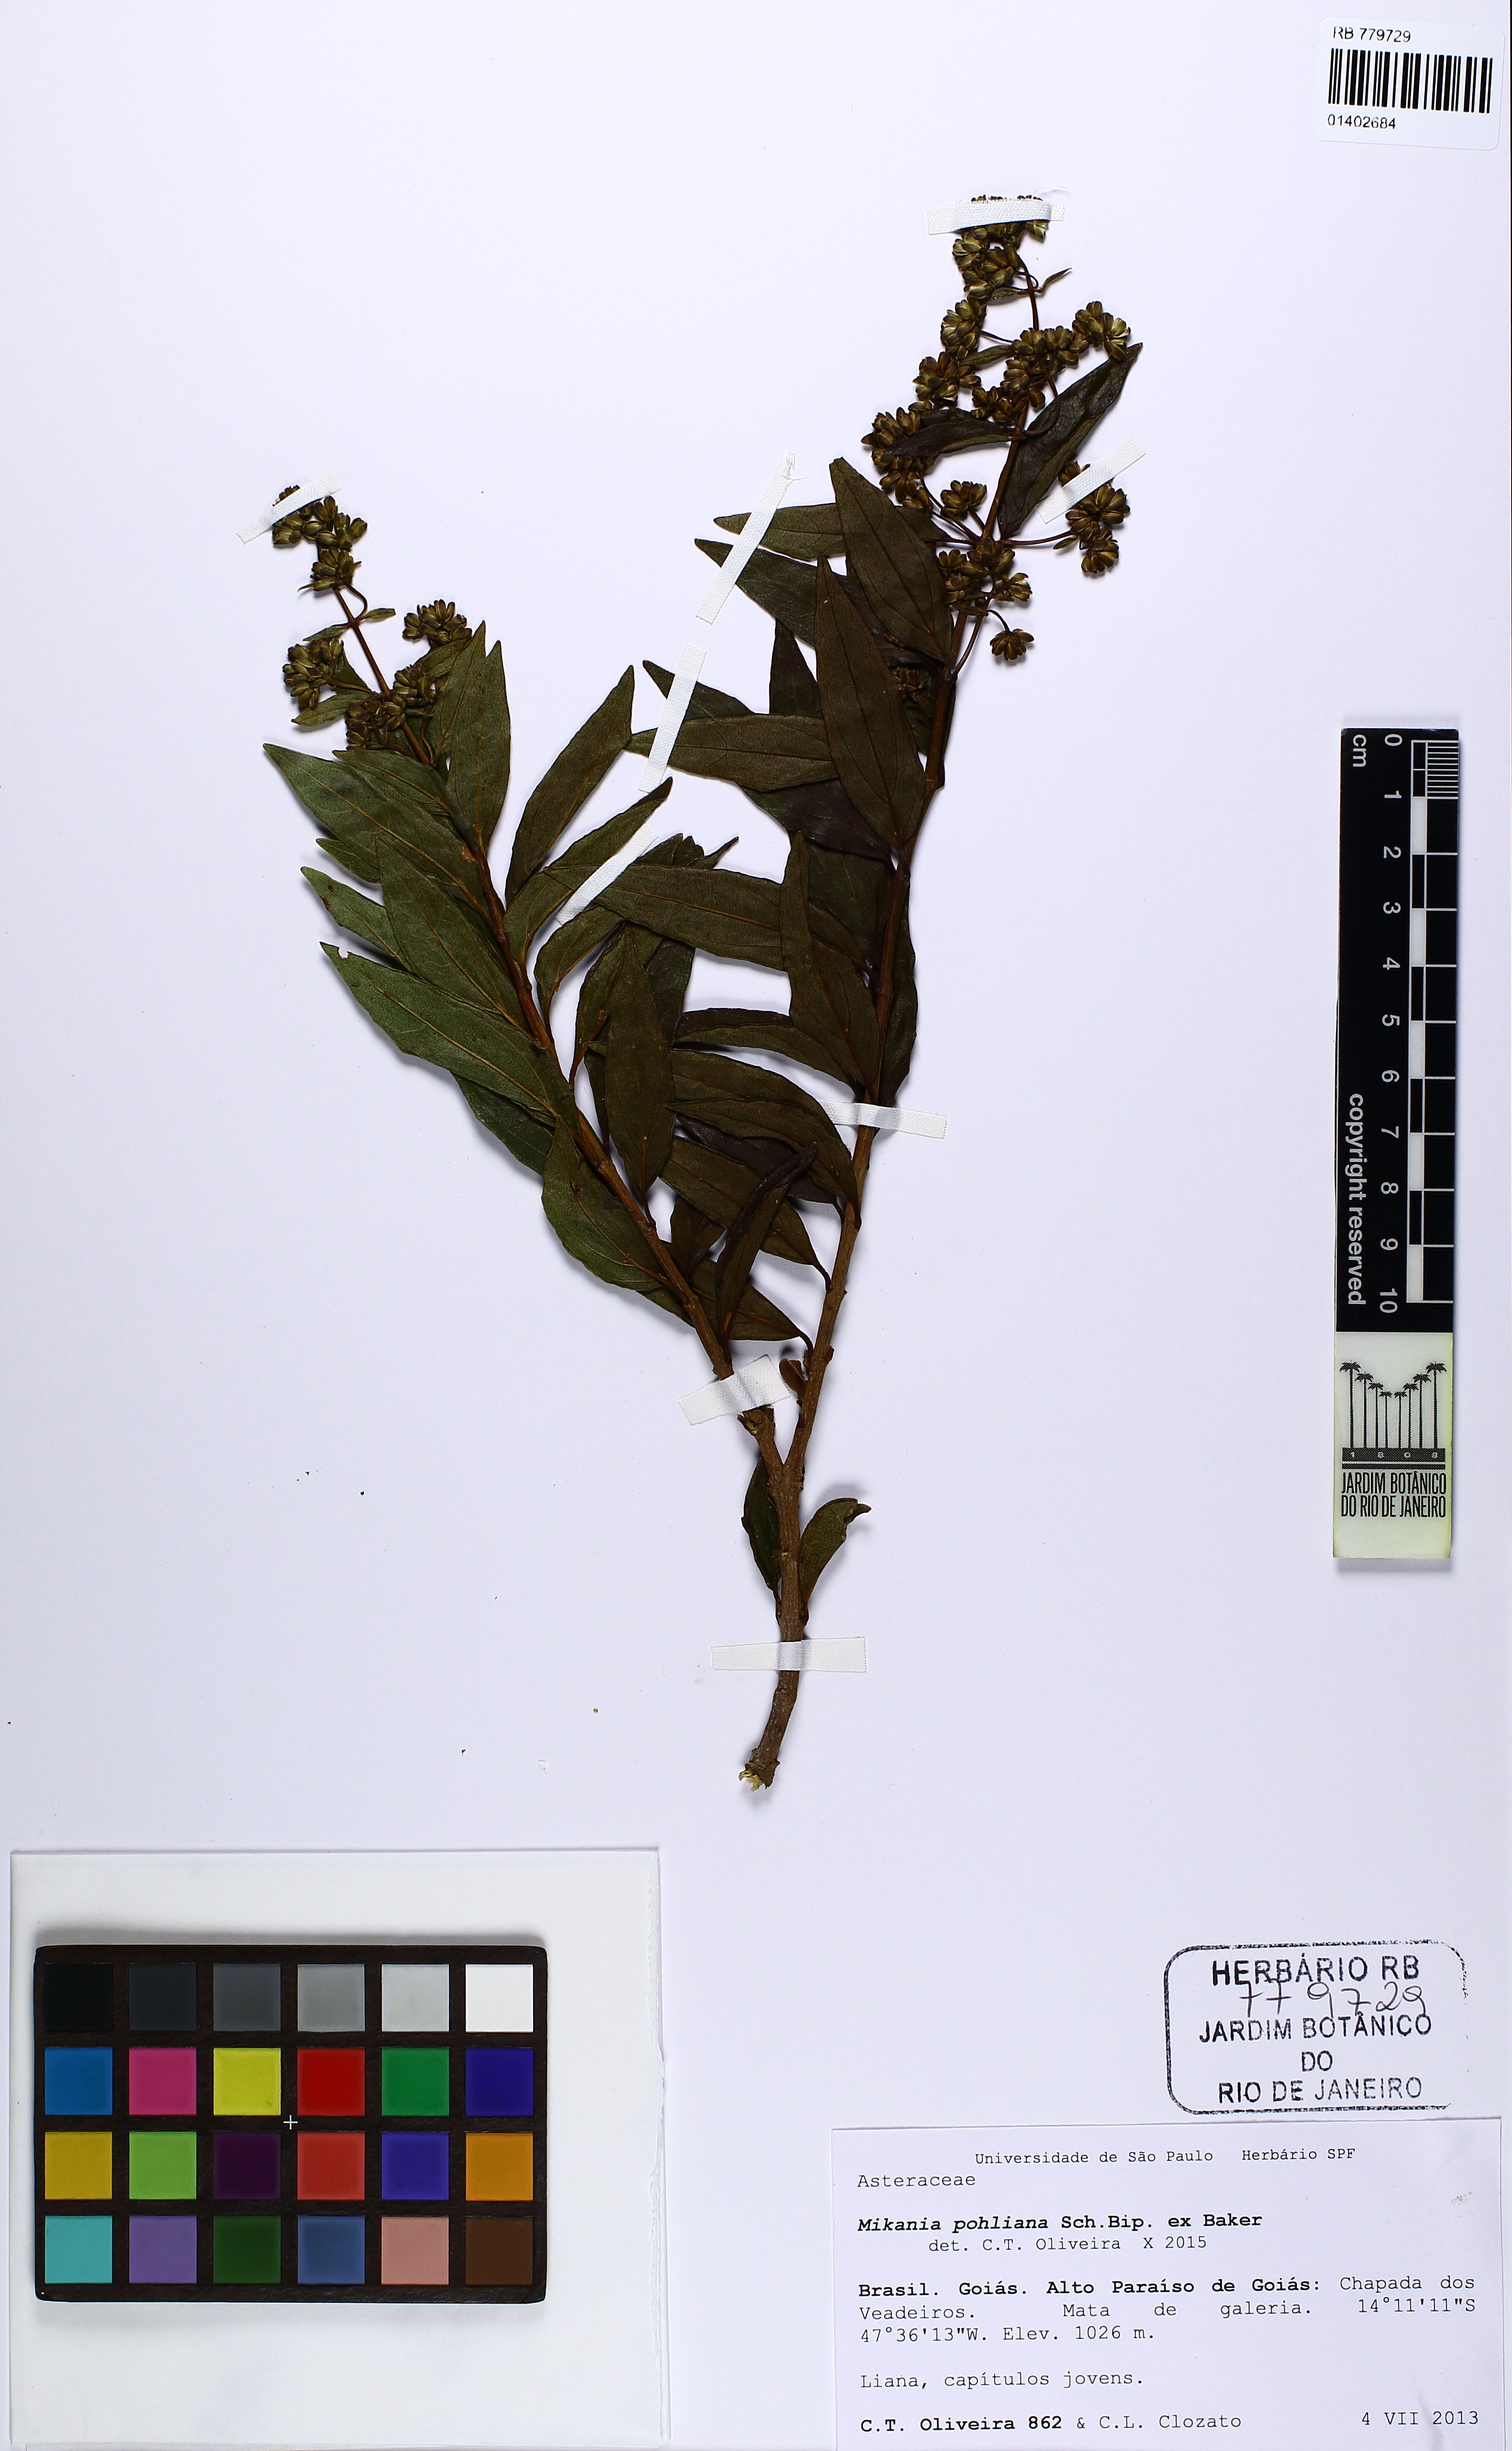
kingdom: Plantae
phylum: Tracheophyta
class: Magnoliopsida
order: Asterales
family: Asteraceae
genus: Mikania
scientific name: Mikania pohliana
